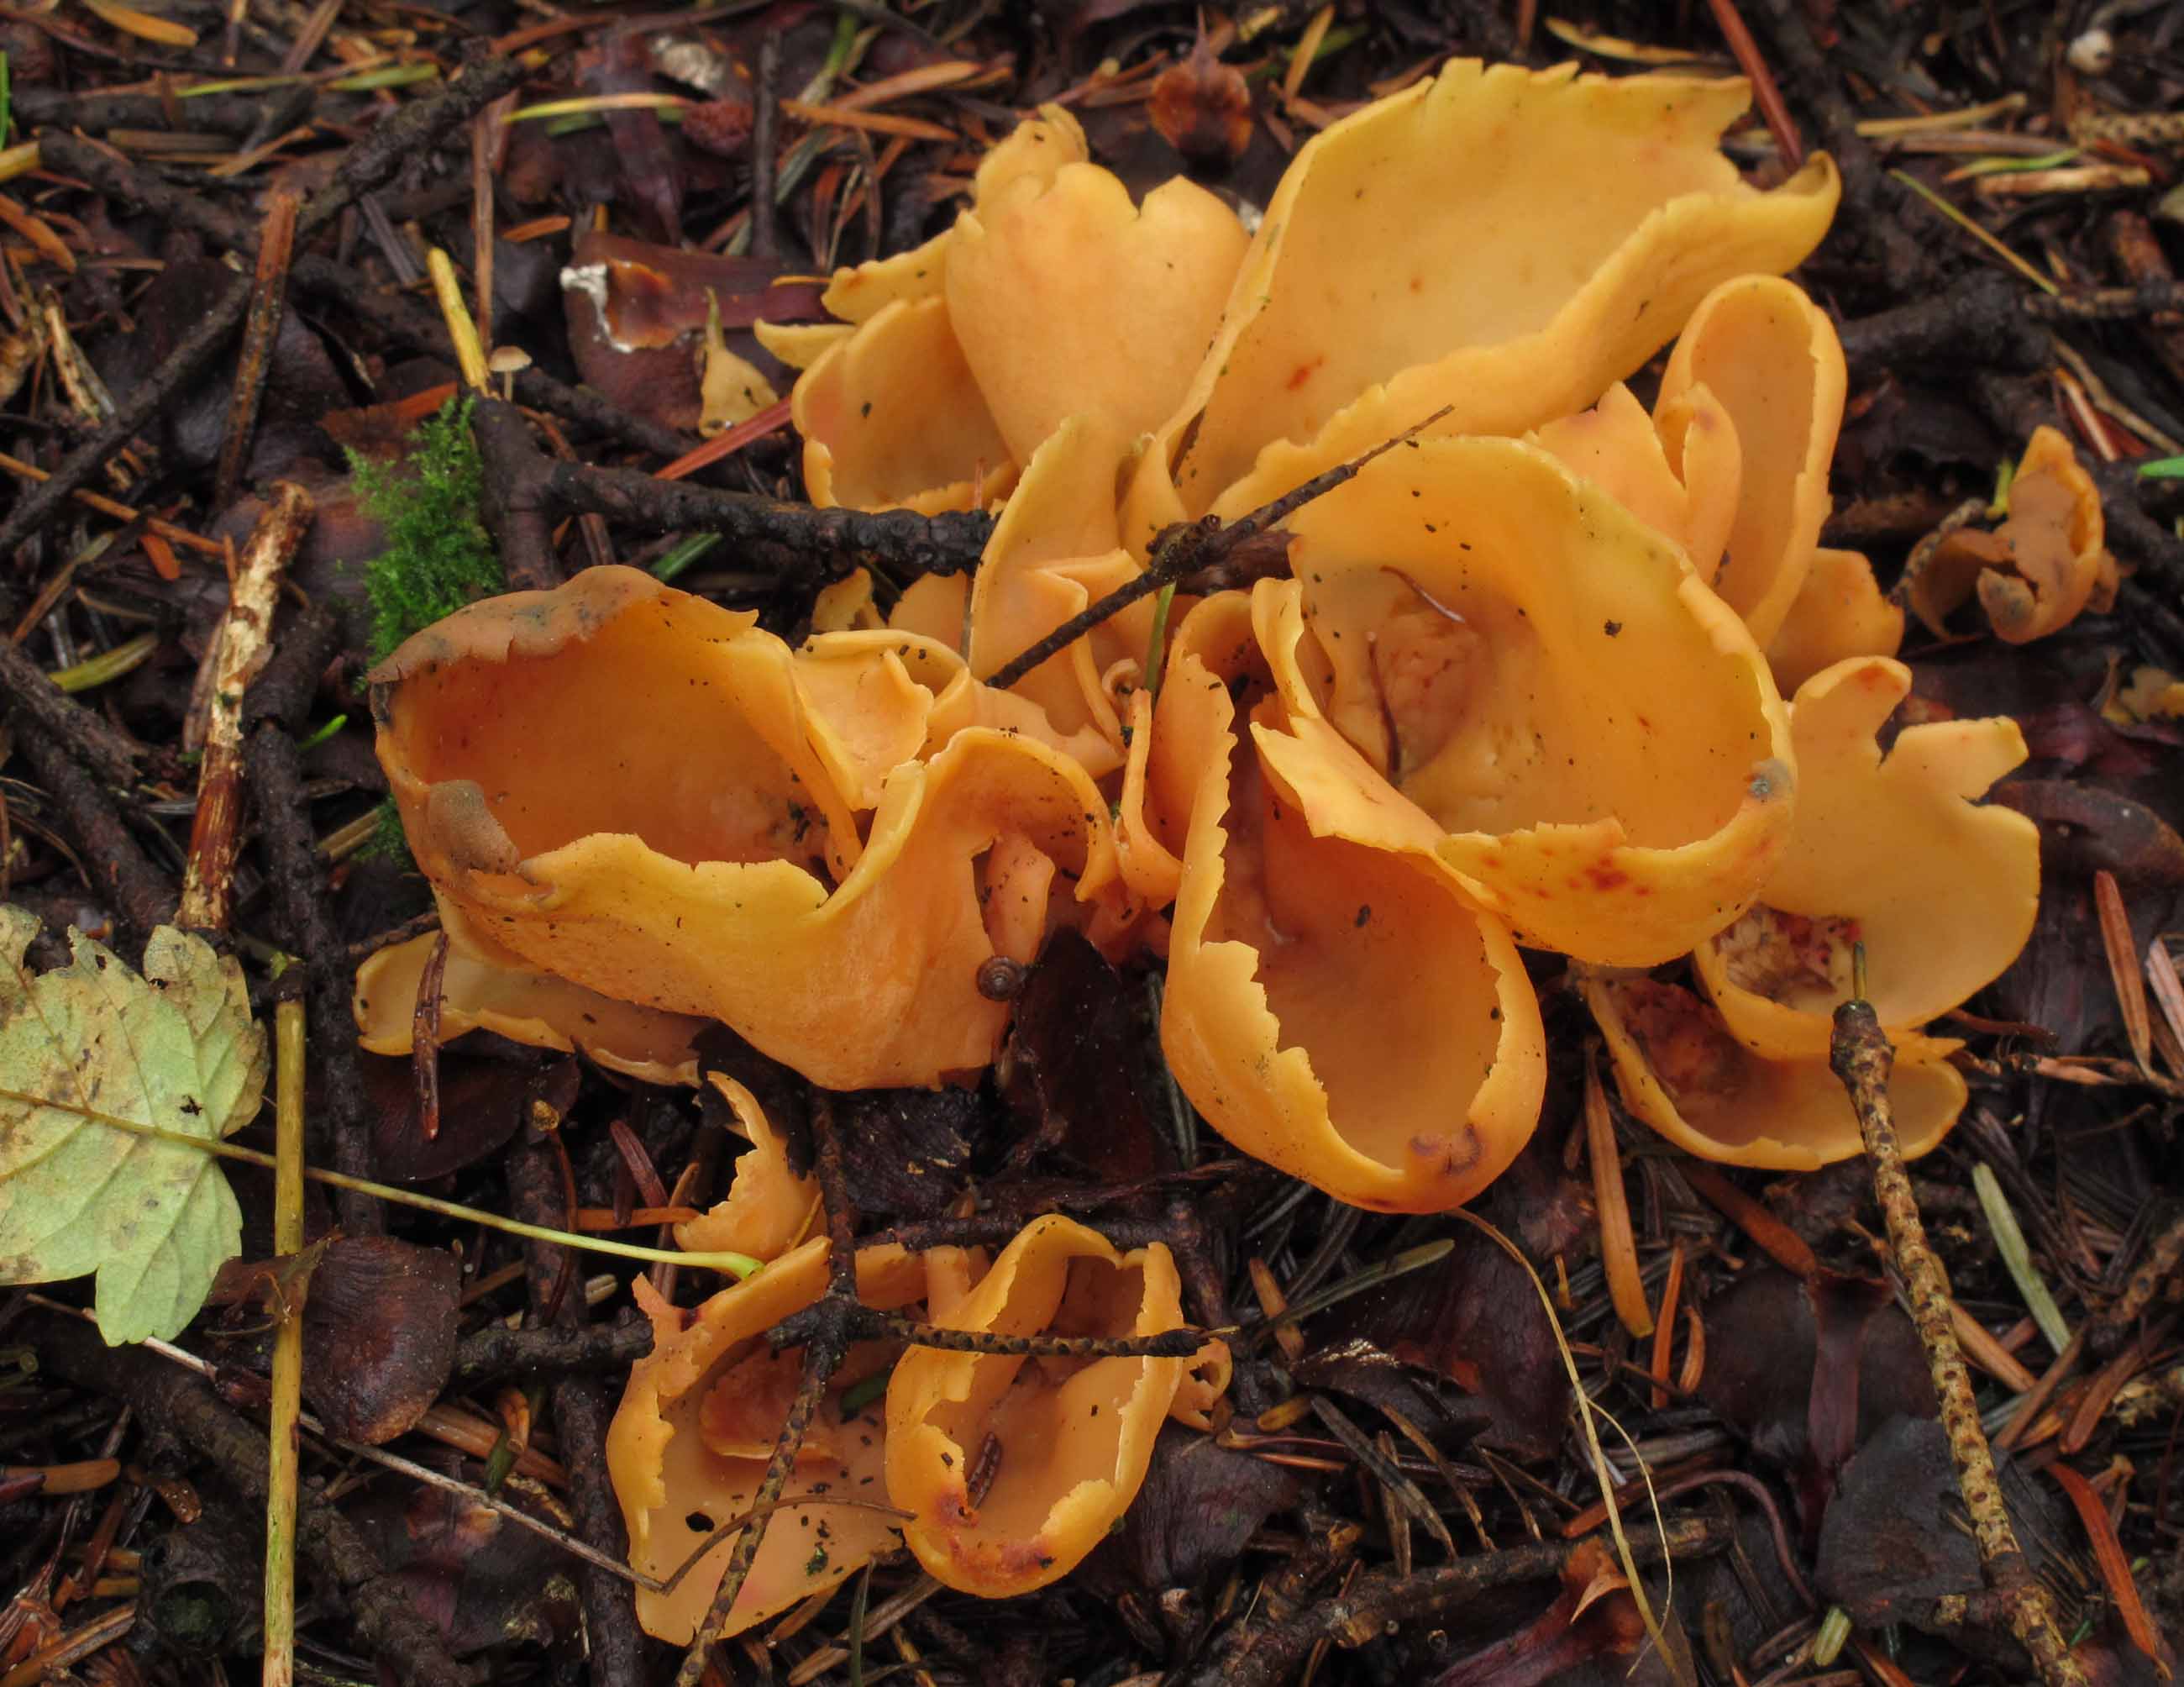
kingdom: Fungi
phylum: Ascomycota
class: Pezizomycetes
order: Pezizales
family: Otideaceae
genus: Otidea
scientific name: Otidea onotica
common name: æsel-ørebæger
